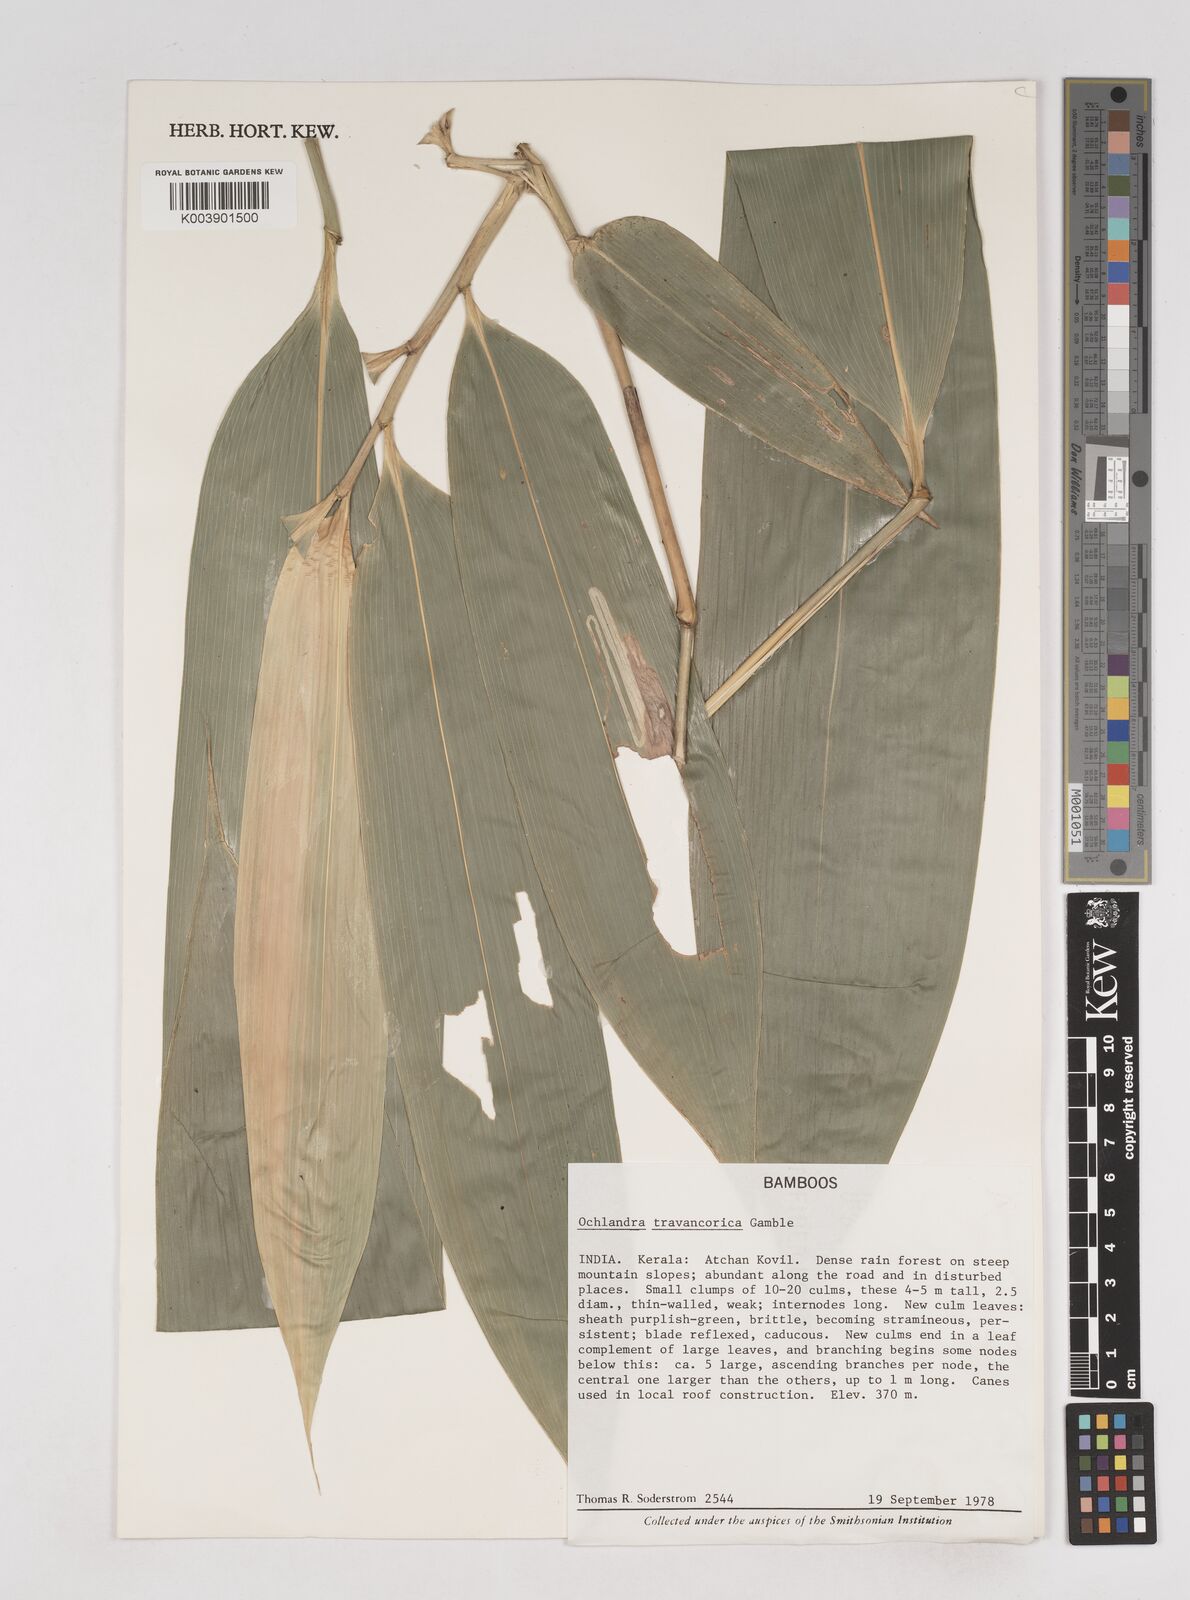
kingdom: Plantae
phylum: Tracheophyta
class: Liliopsida
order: Poales
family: Poaceae
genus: Ochlandra
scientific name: Ochlandra travancorica
